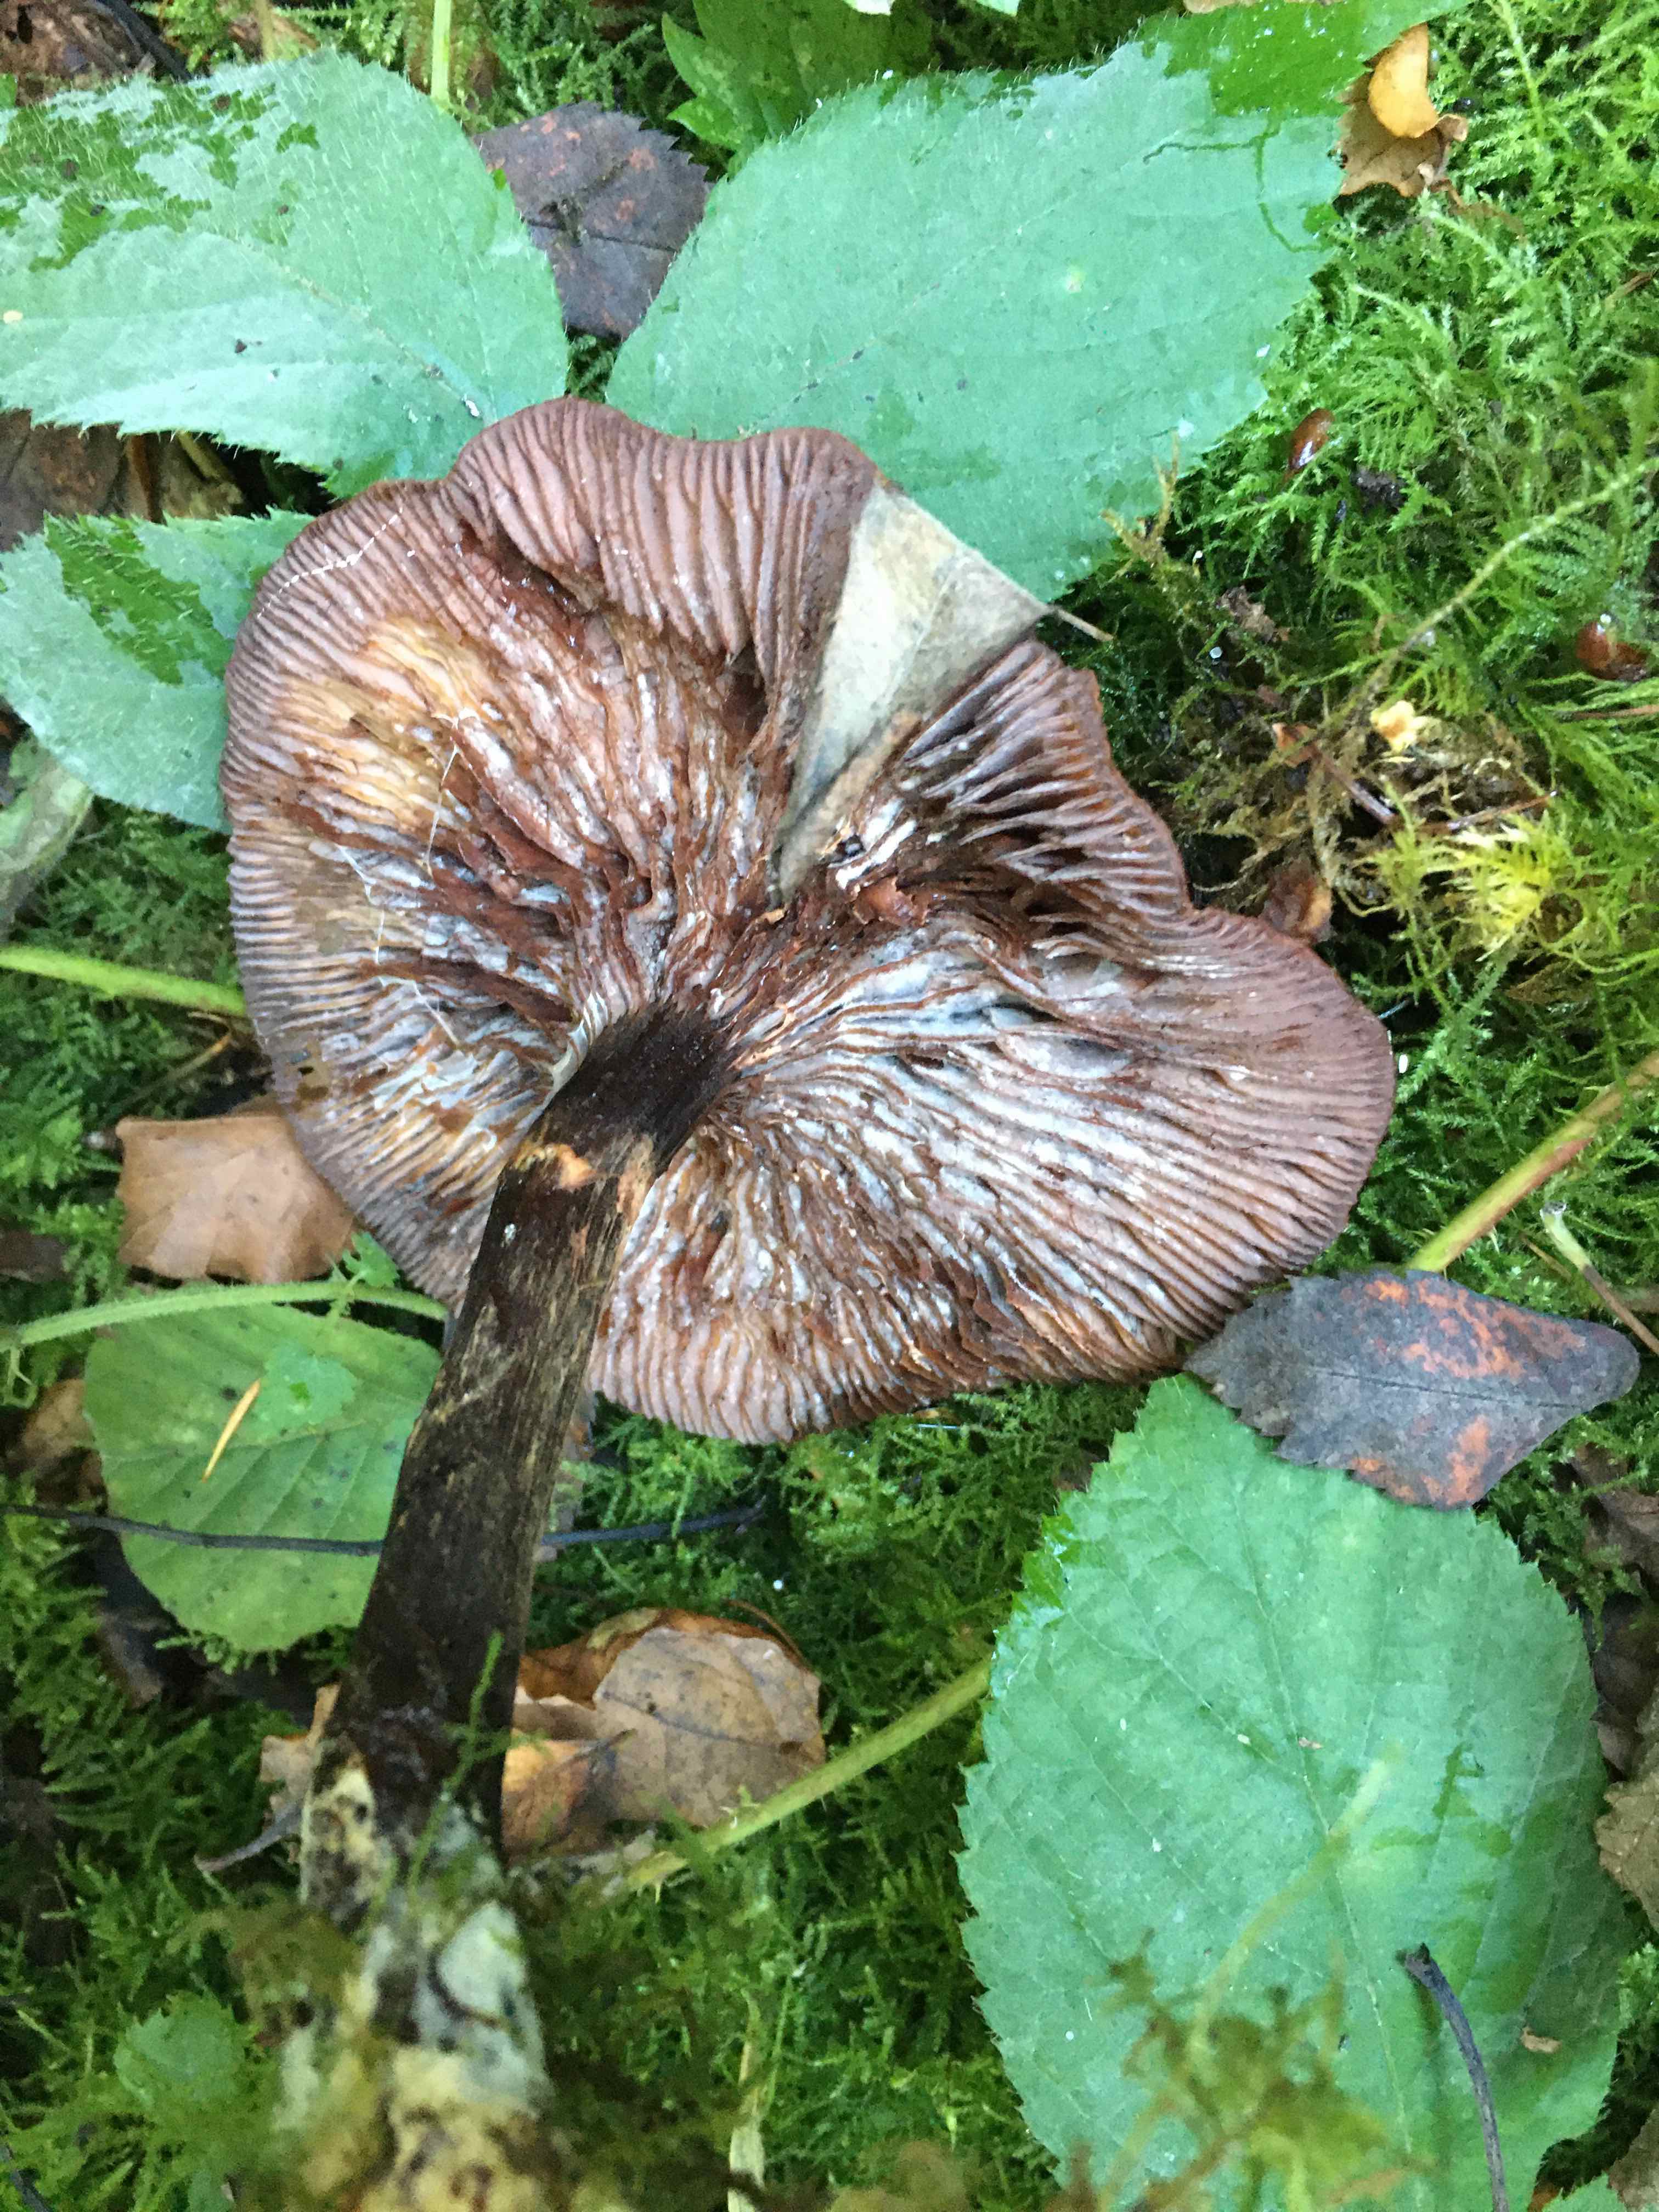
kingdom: Fungi
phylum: Basidiomycota
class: Agaricomycetes
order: Agaricales
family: Physalacriaceae
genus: Armillaria
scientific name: Armillaria
